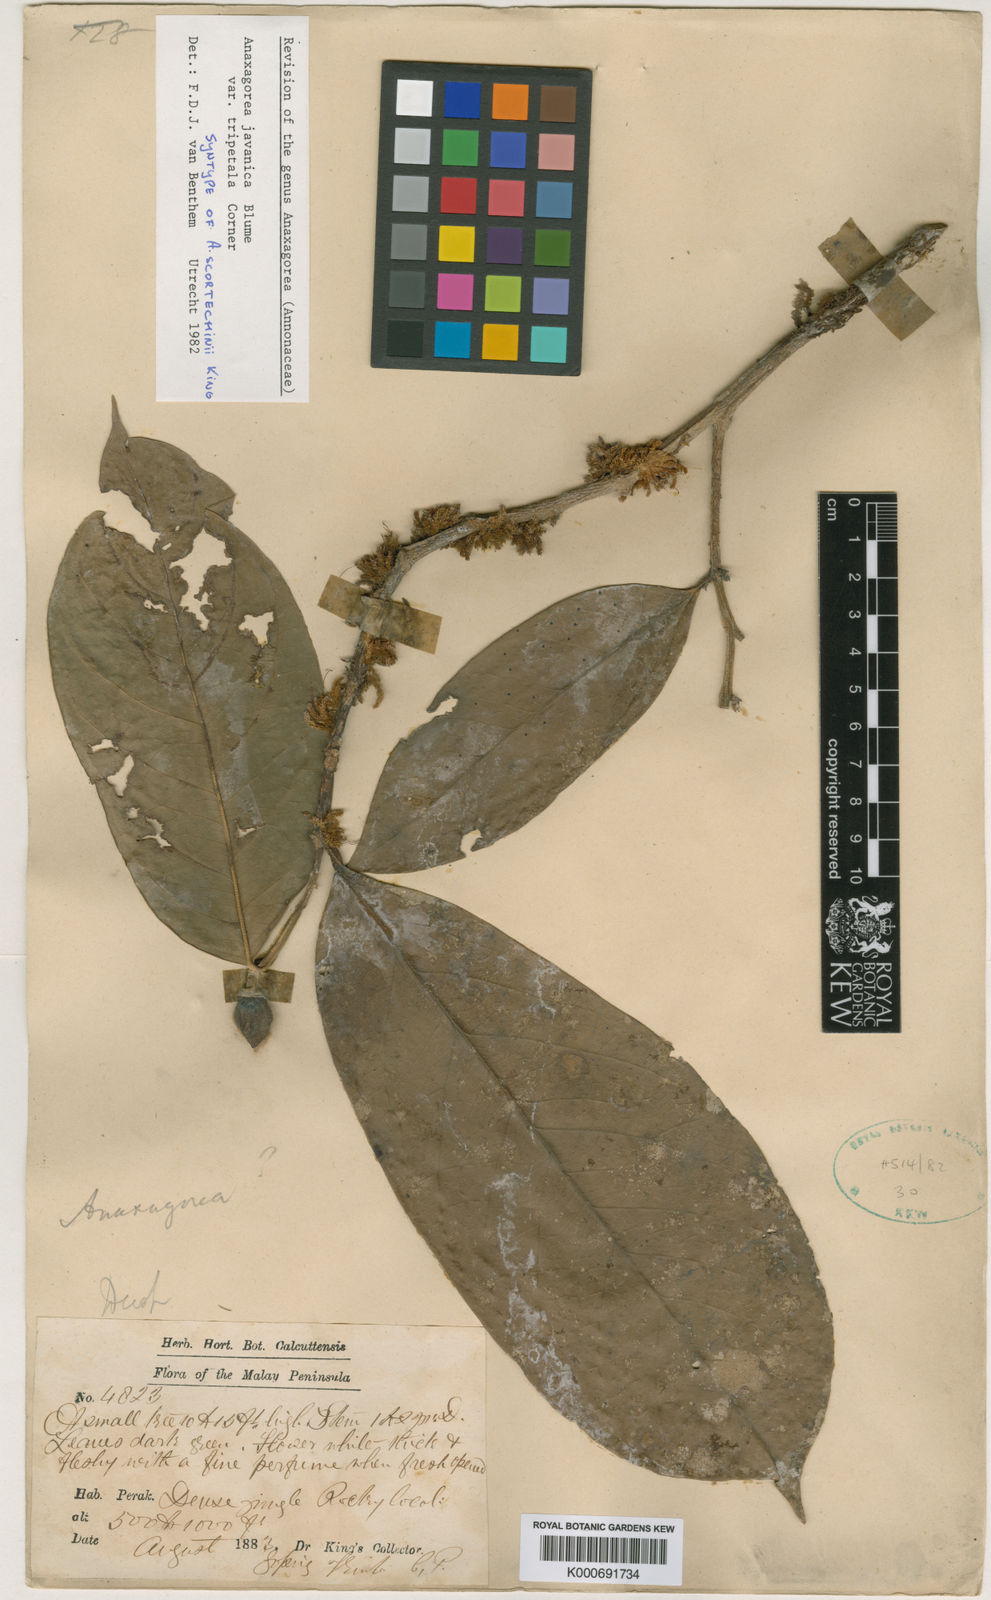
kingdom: Plantae
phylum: Tracheophyta
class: Magnoliopsida
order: Magnoliales
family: Annonaceae
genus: Anaxagorea
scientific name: Anaxagorea javanica
